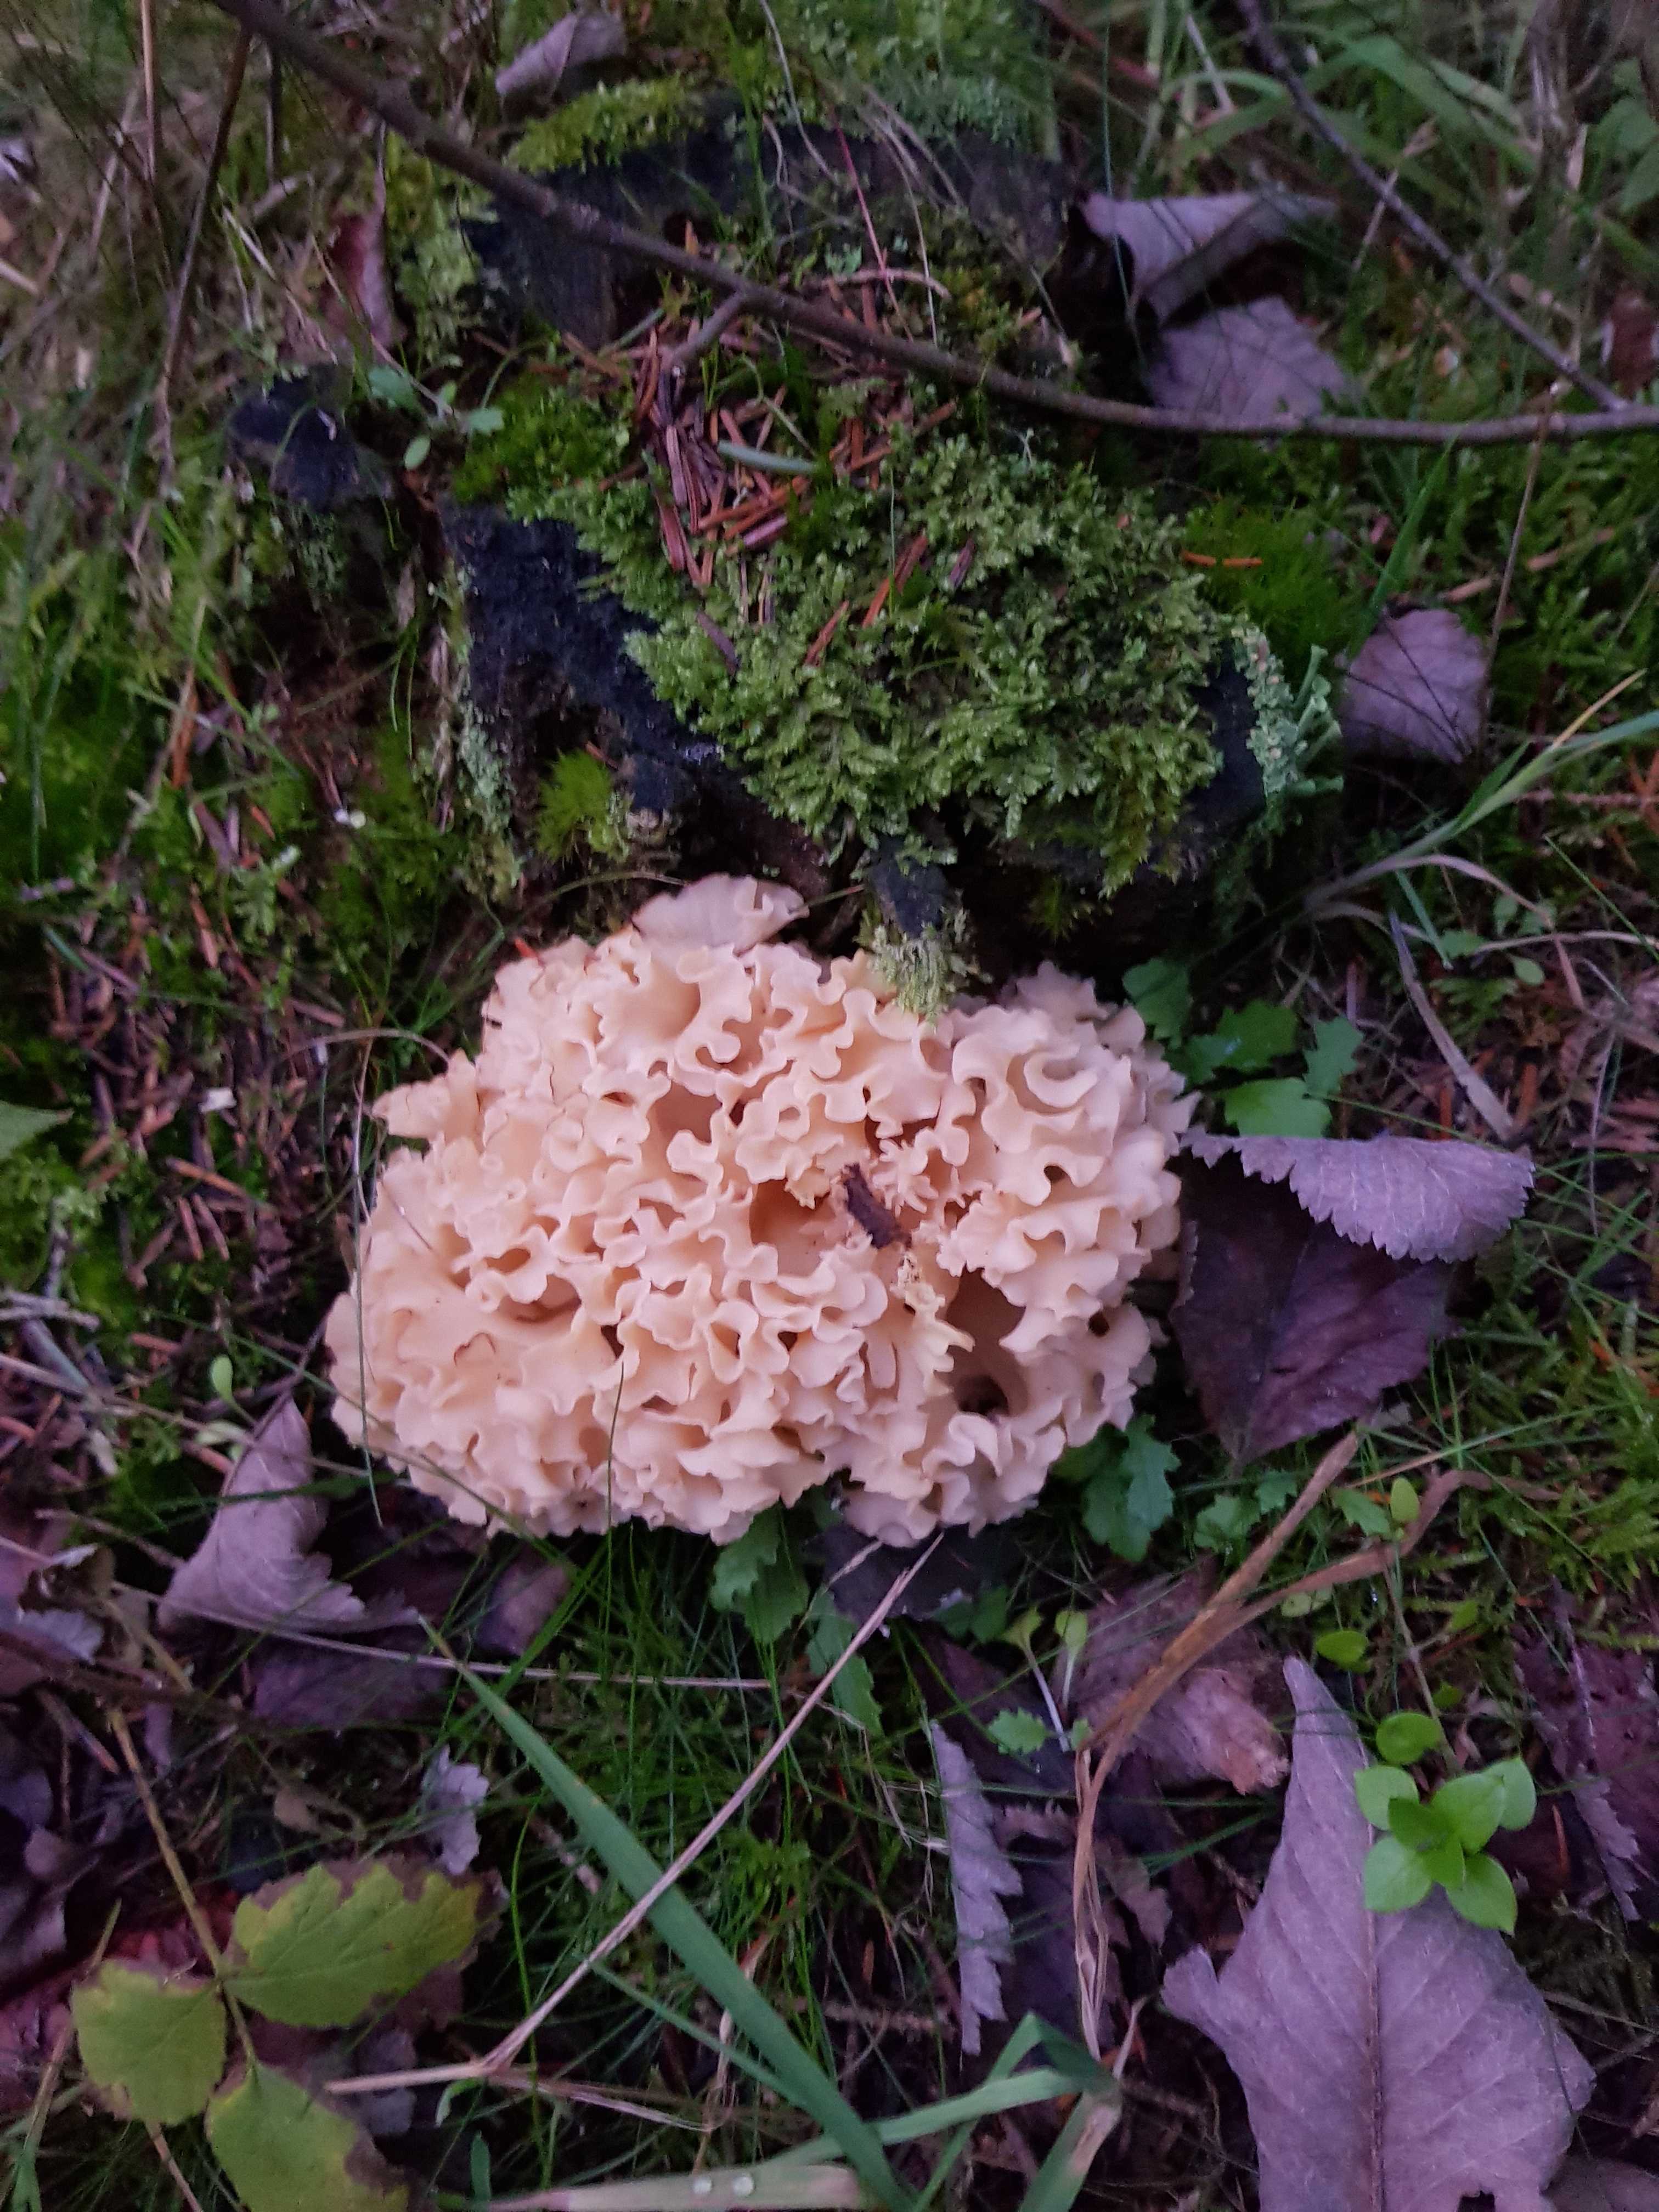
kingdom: Fungi
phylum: Basidiomycota
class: Agaricomycetes
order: Polyporales
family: Sparassidaceae
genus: Sparassis
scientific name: Sparassis crispa
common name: kruset blomkålssvamp
